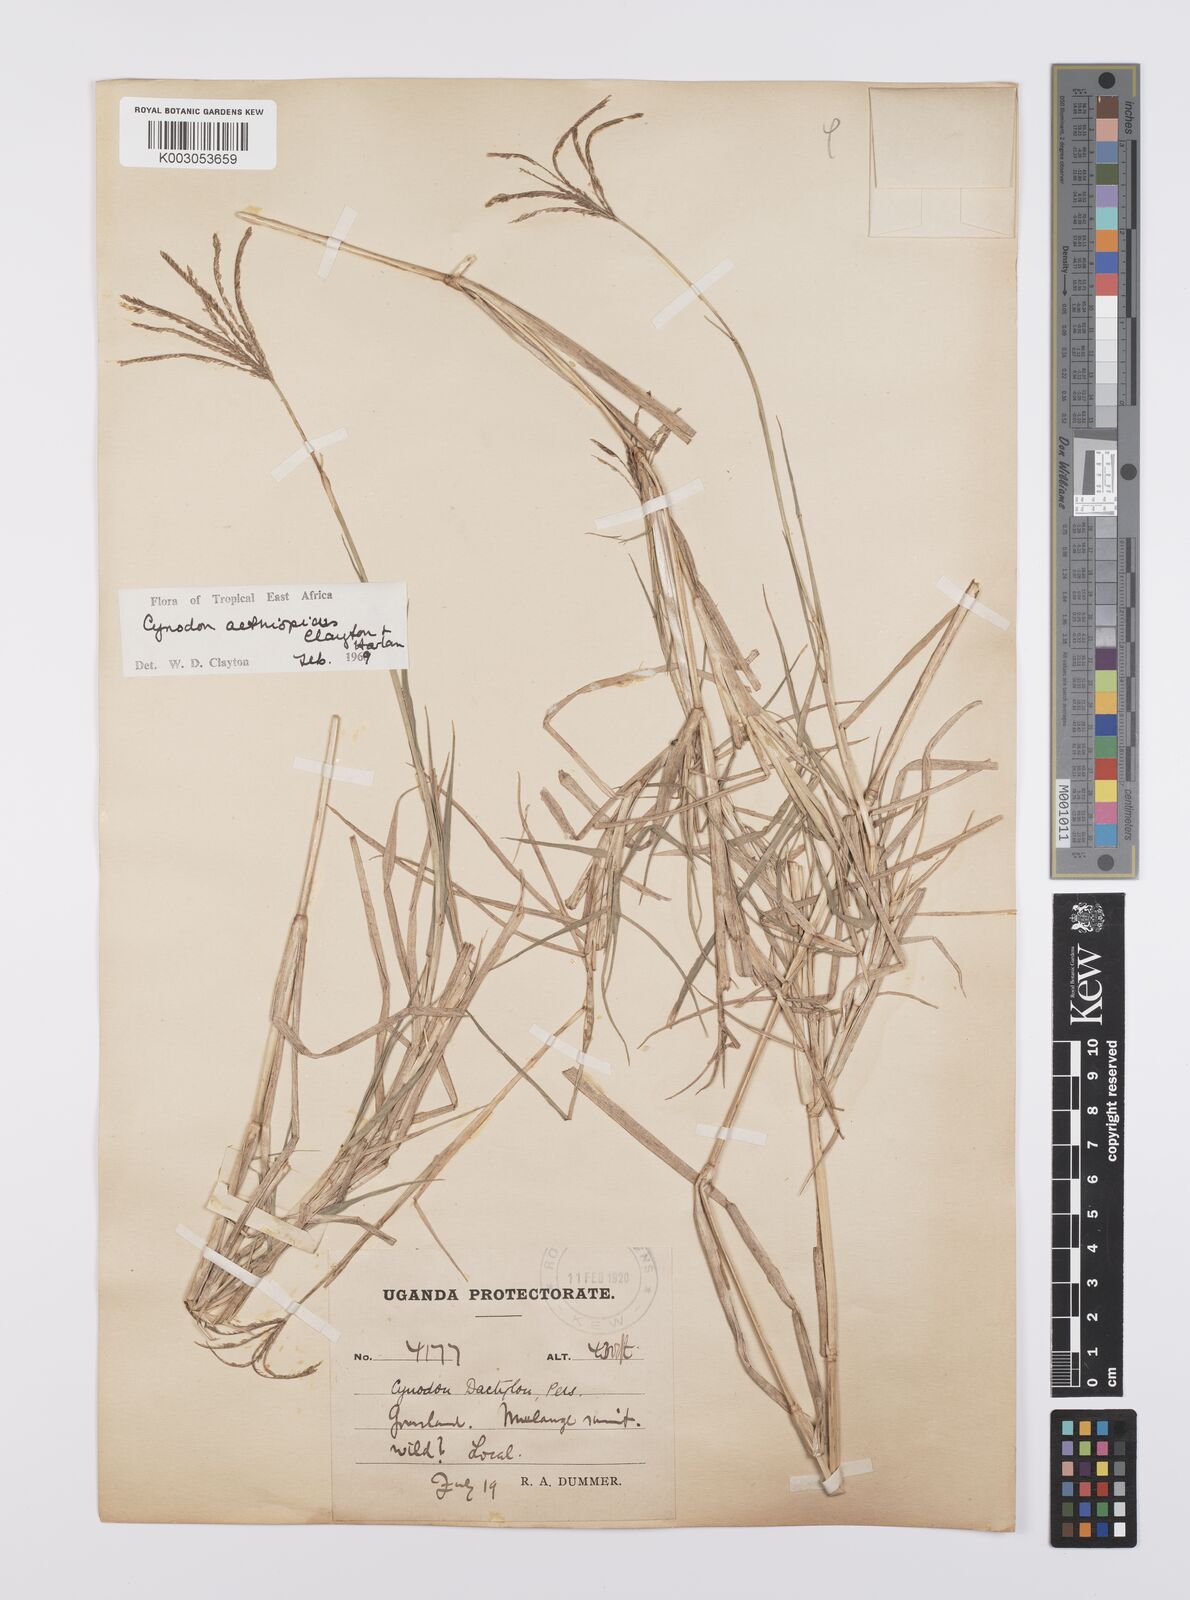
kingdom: Plantae
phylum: Tracheophyta
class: Liliopsida
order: Poales
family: Poaceae
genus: Cynodon
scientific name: Cynodon aethiopicus
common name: Ethiopian dogstooth grass
